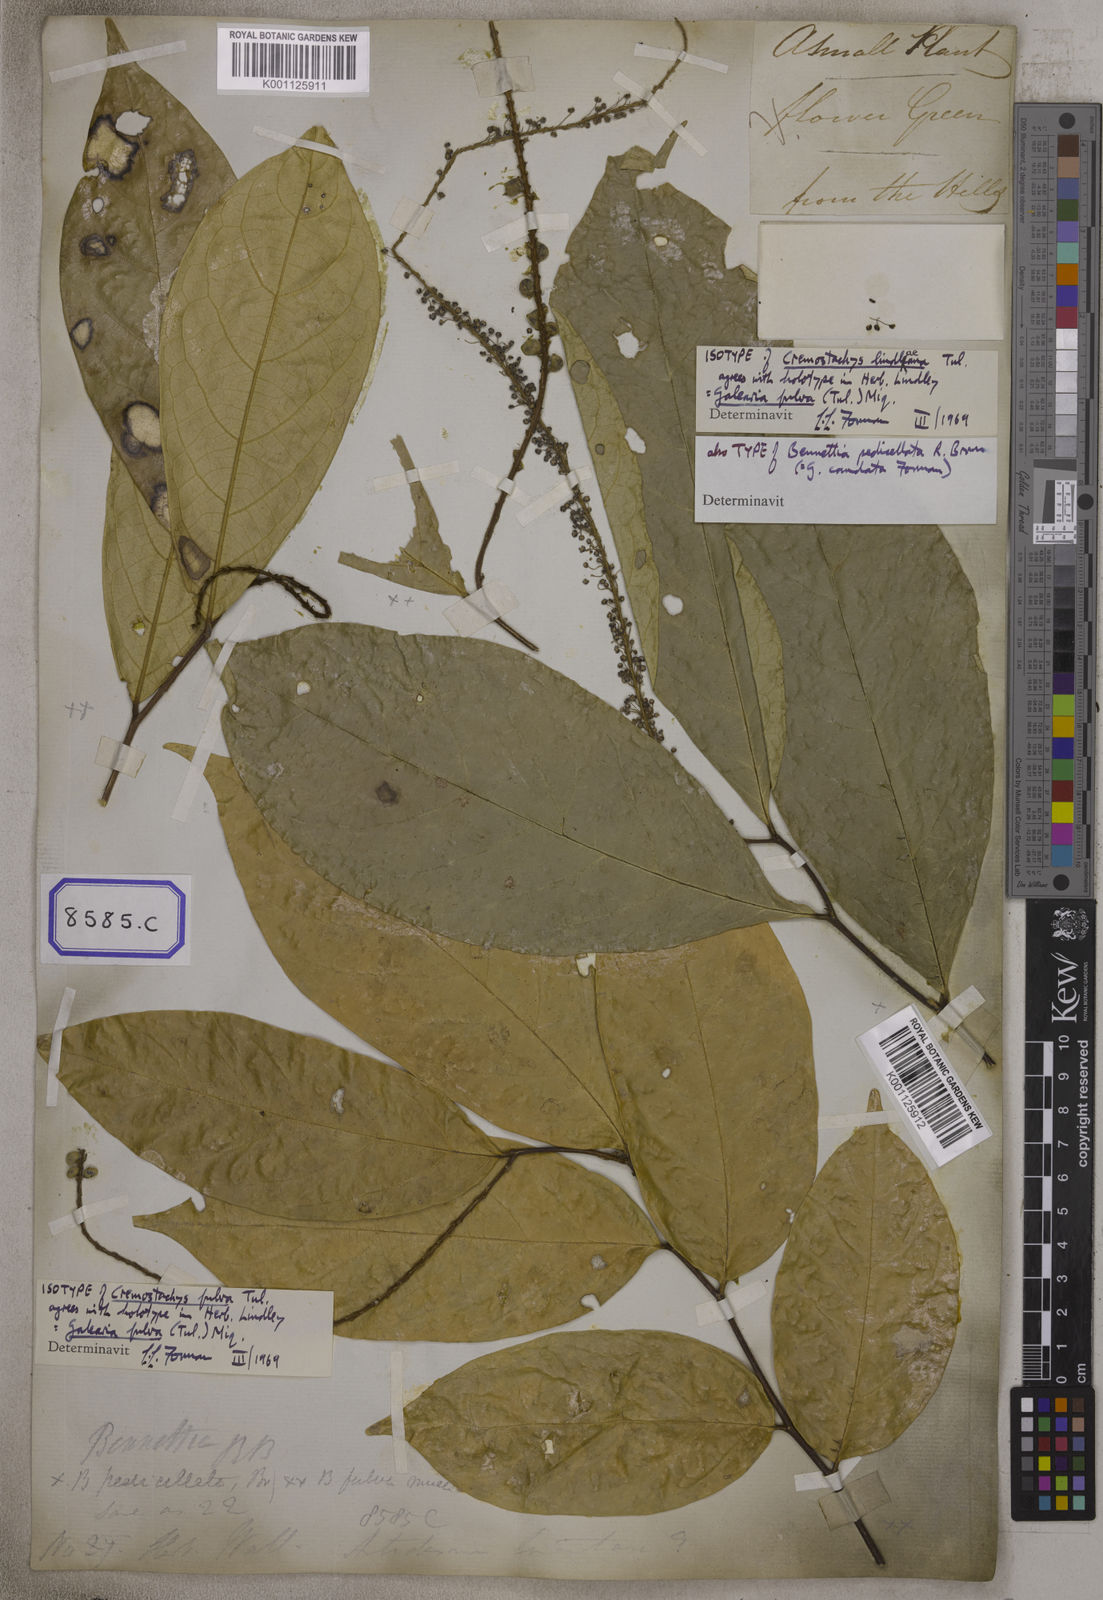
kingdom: Plantae
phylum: Tracheophyta
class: Magnoliopsida
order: Malpighiales
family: Pandaceae
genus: Galearia
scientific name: Galearia
